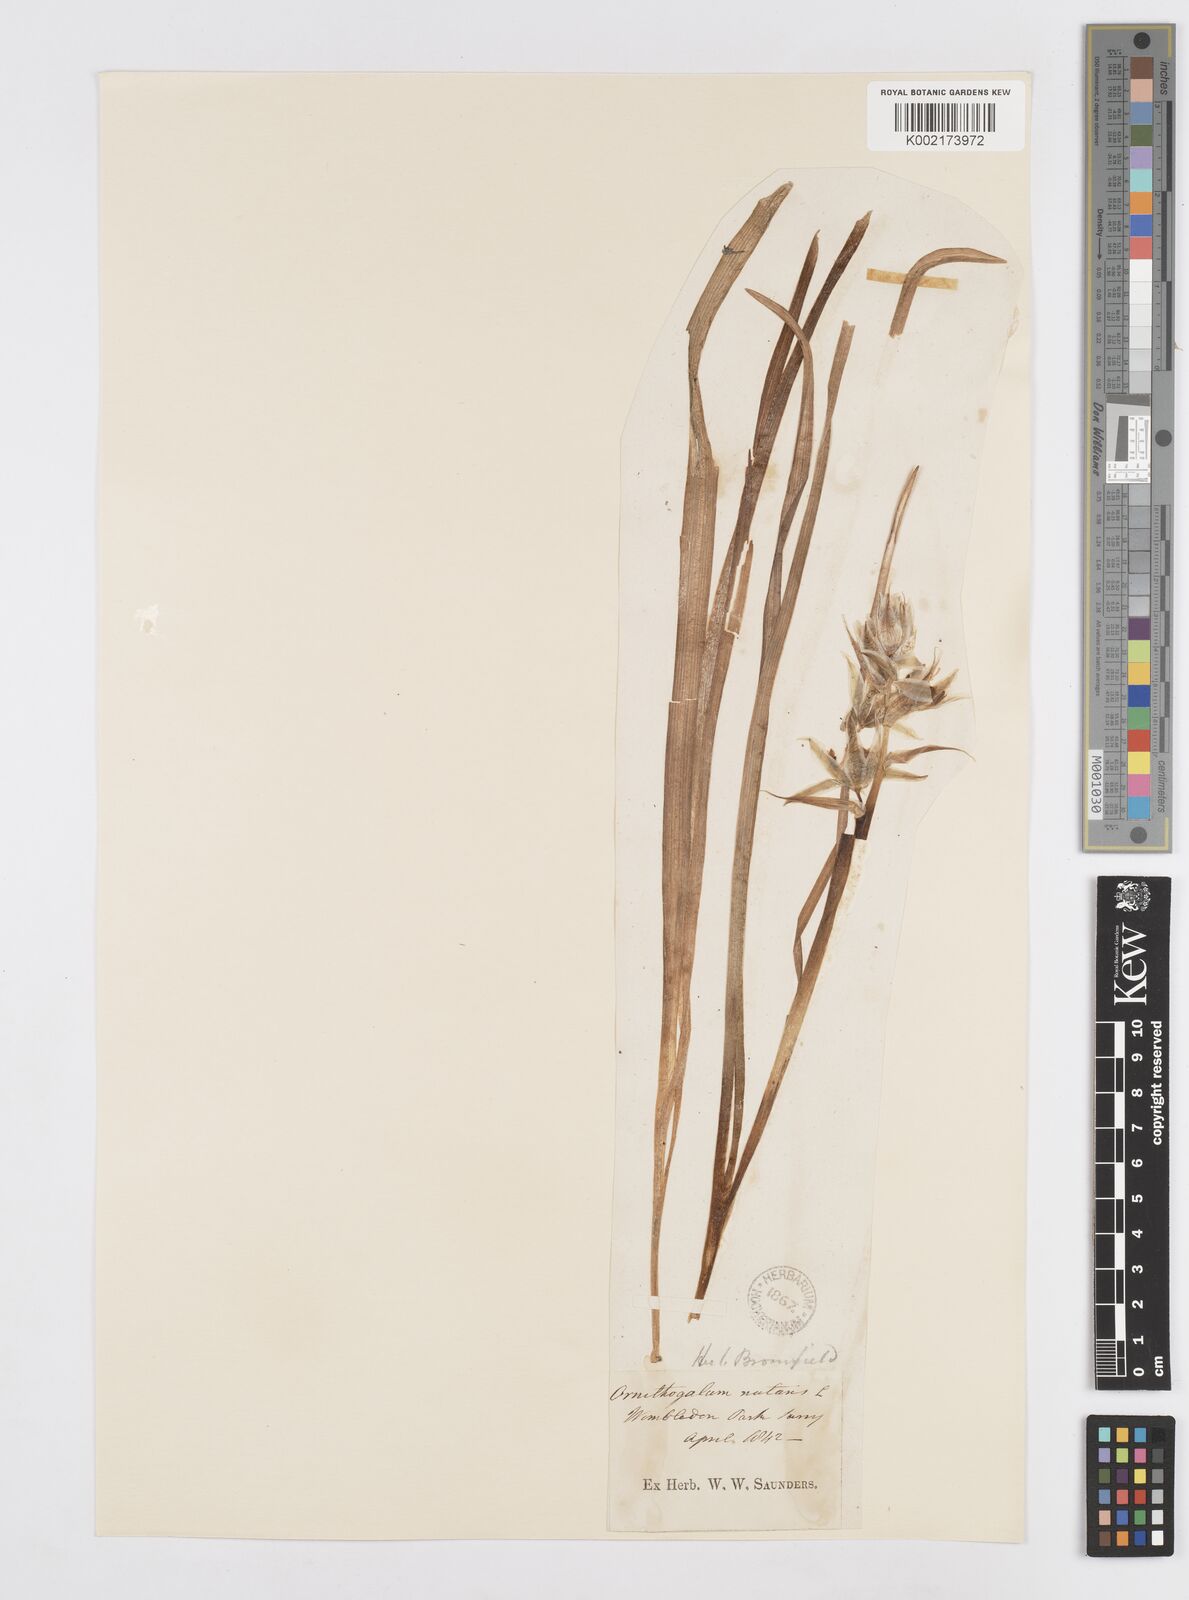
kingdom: Plantae
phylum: Tracheophyta
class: Liliopsida
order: Asparagales
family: Asparagaceae
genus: Ornithogalum
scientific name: Ornithogalum nutans
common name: Drooping star-of-bethlehem
